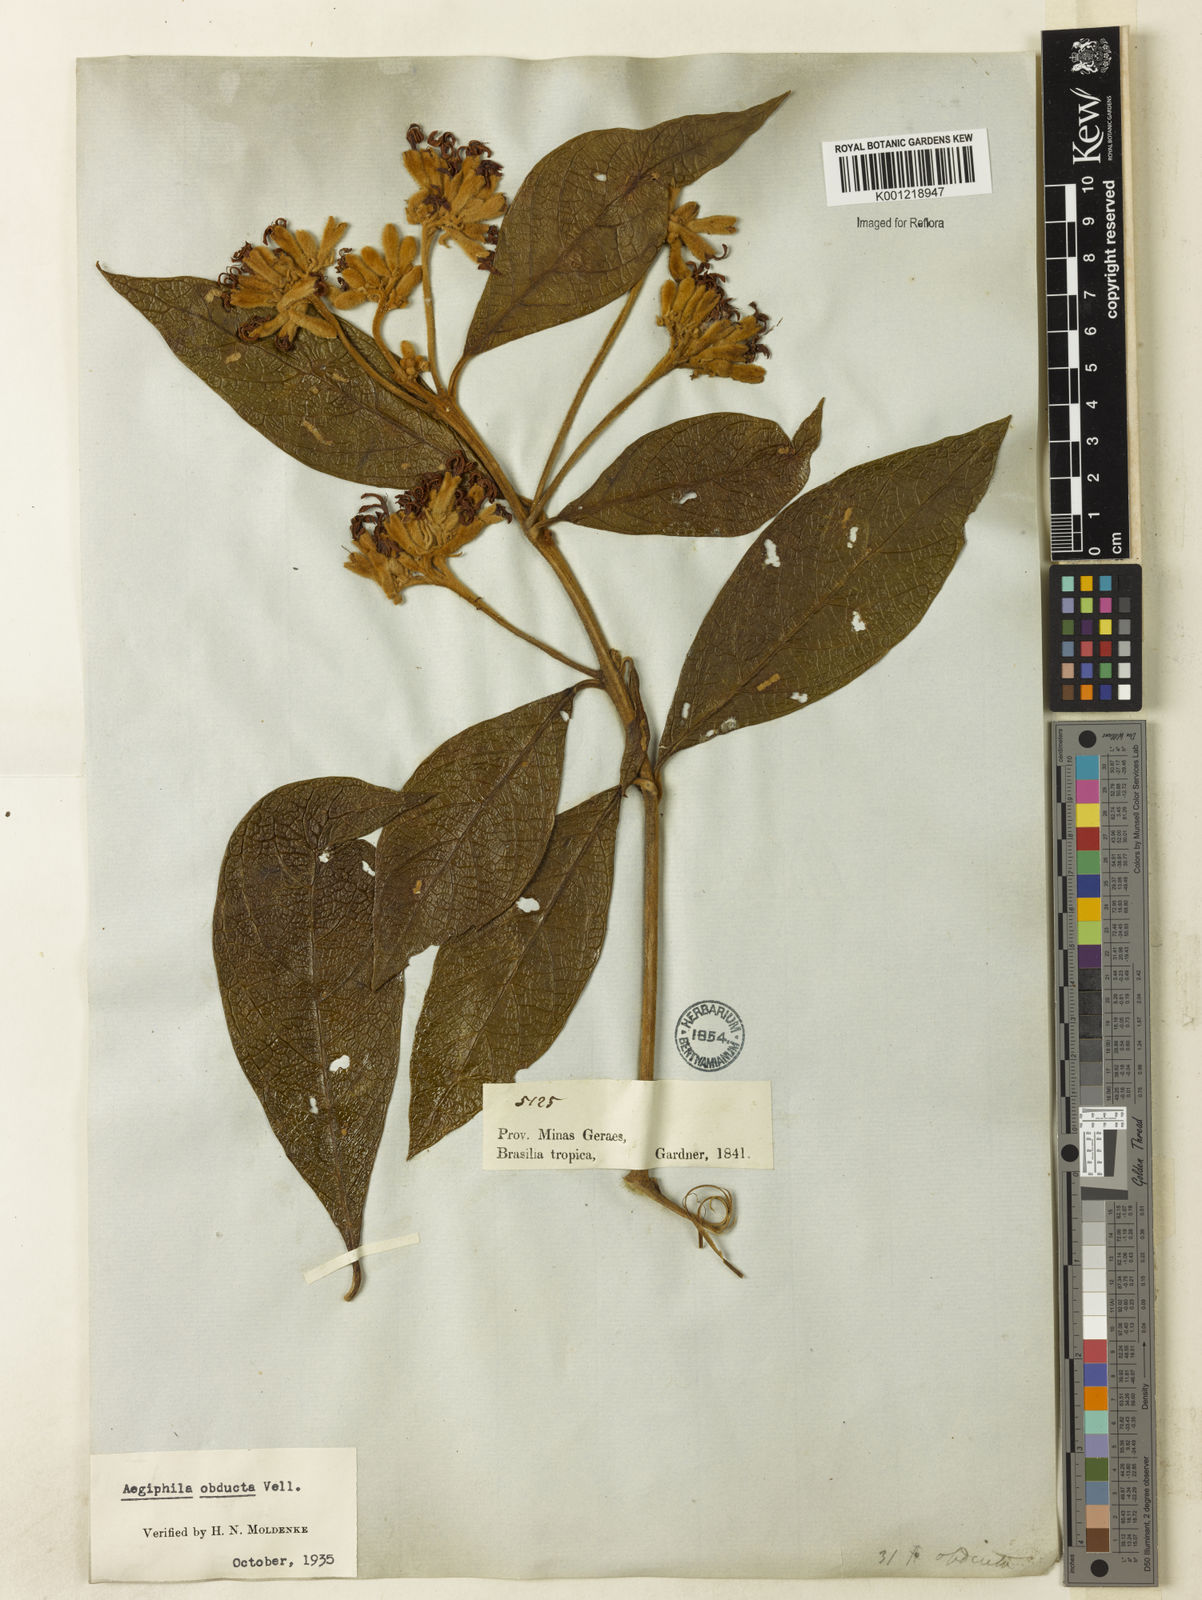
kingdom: Plantae
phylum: Tracheophyta
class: Magnoliopsida
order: Lamiales
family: Lamiaceae
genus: Aegiphila
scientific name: Aegiphila obducta
